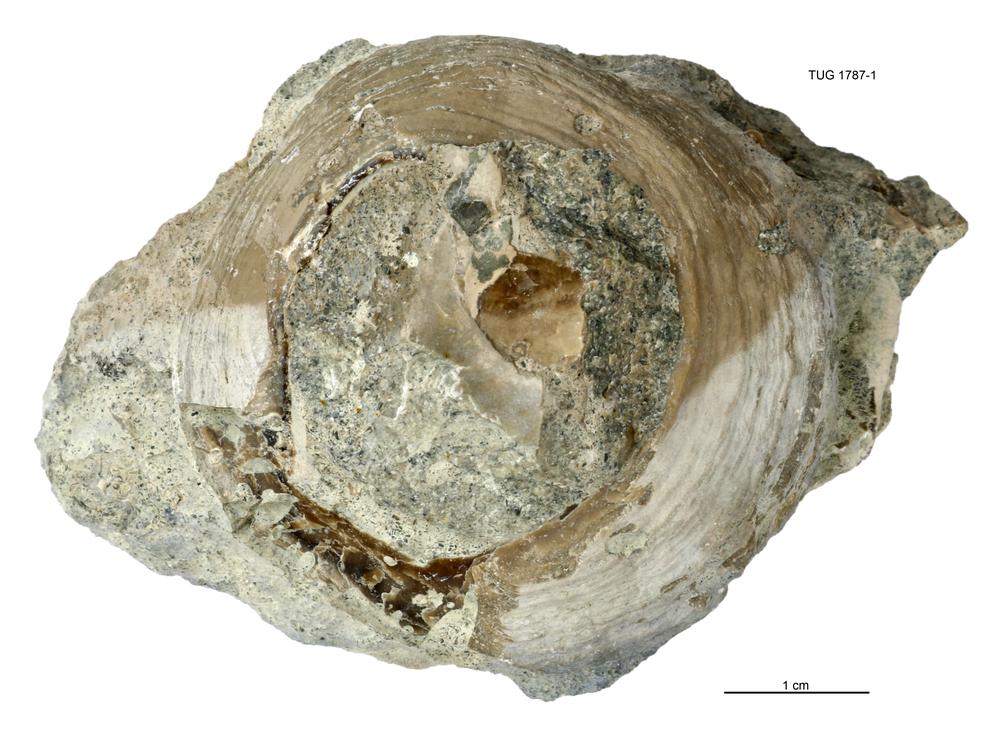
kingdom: Animalia
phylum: Mollusca
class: Monoplacophora
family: Metoptomatidae
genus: Metoptoma
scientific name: Metoptoma
